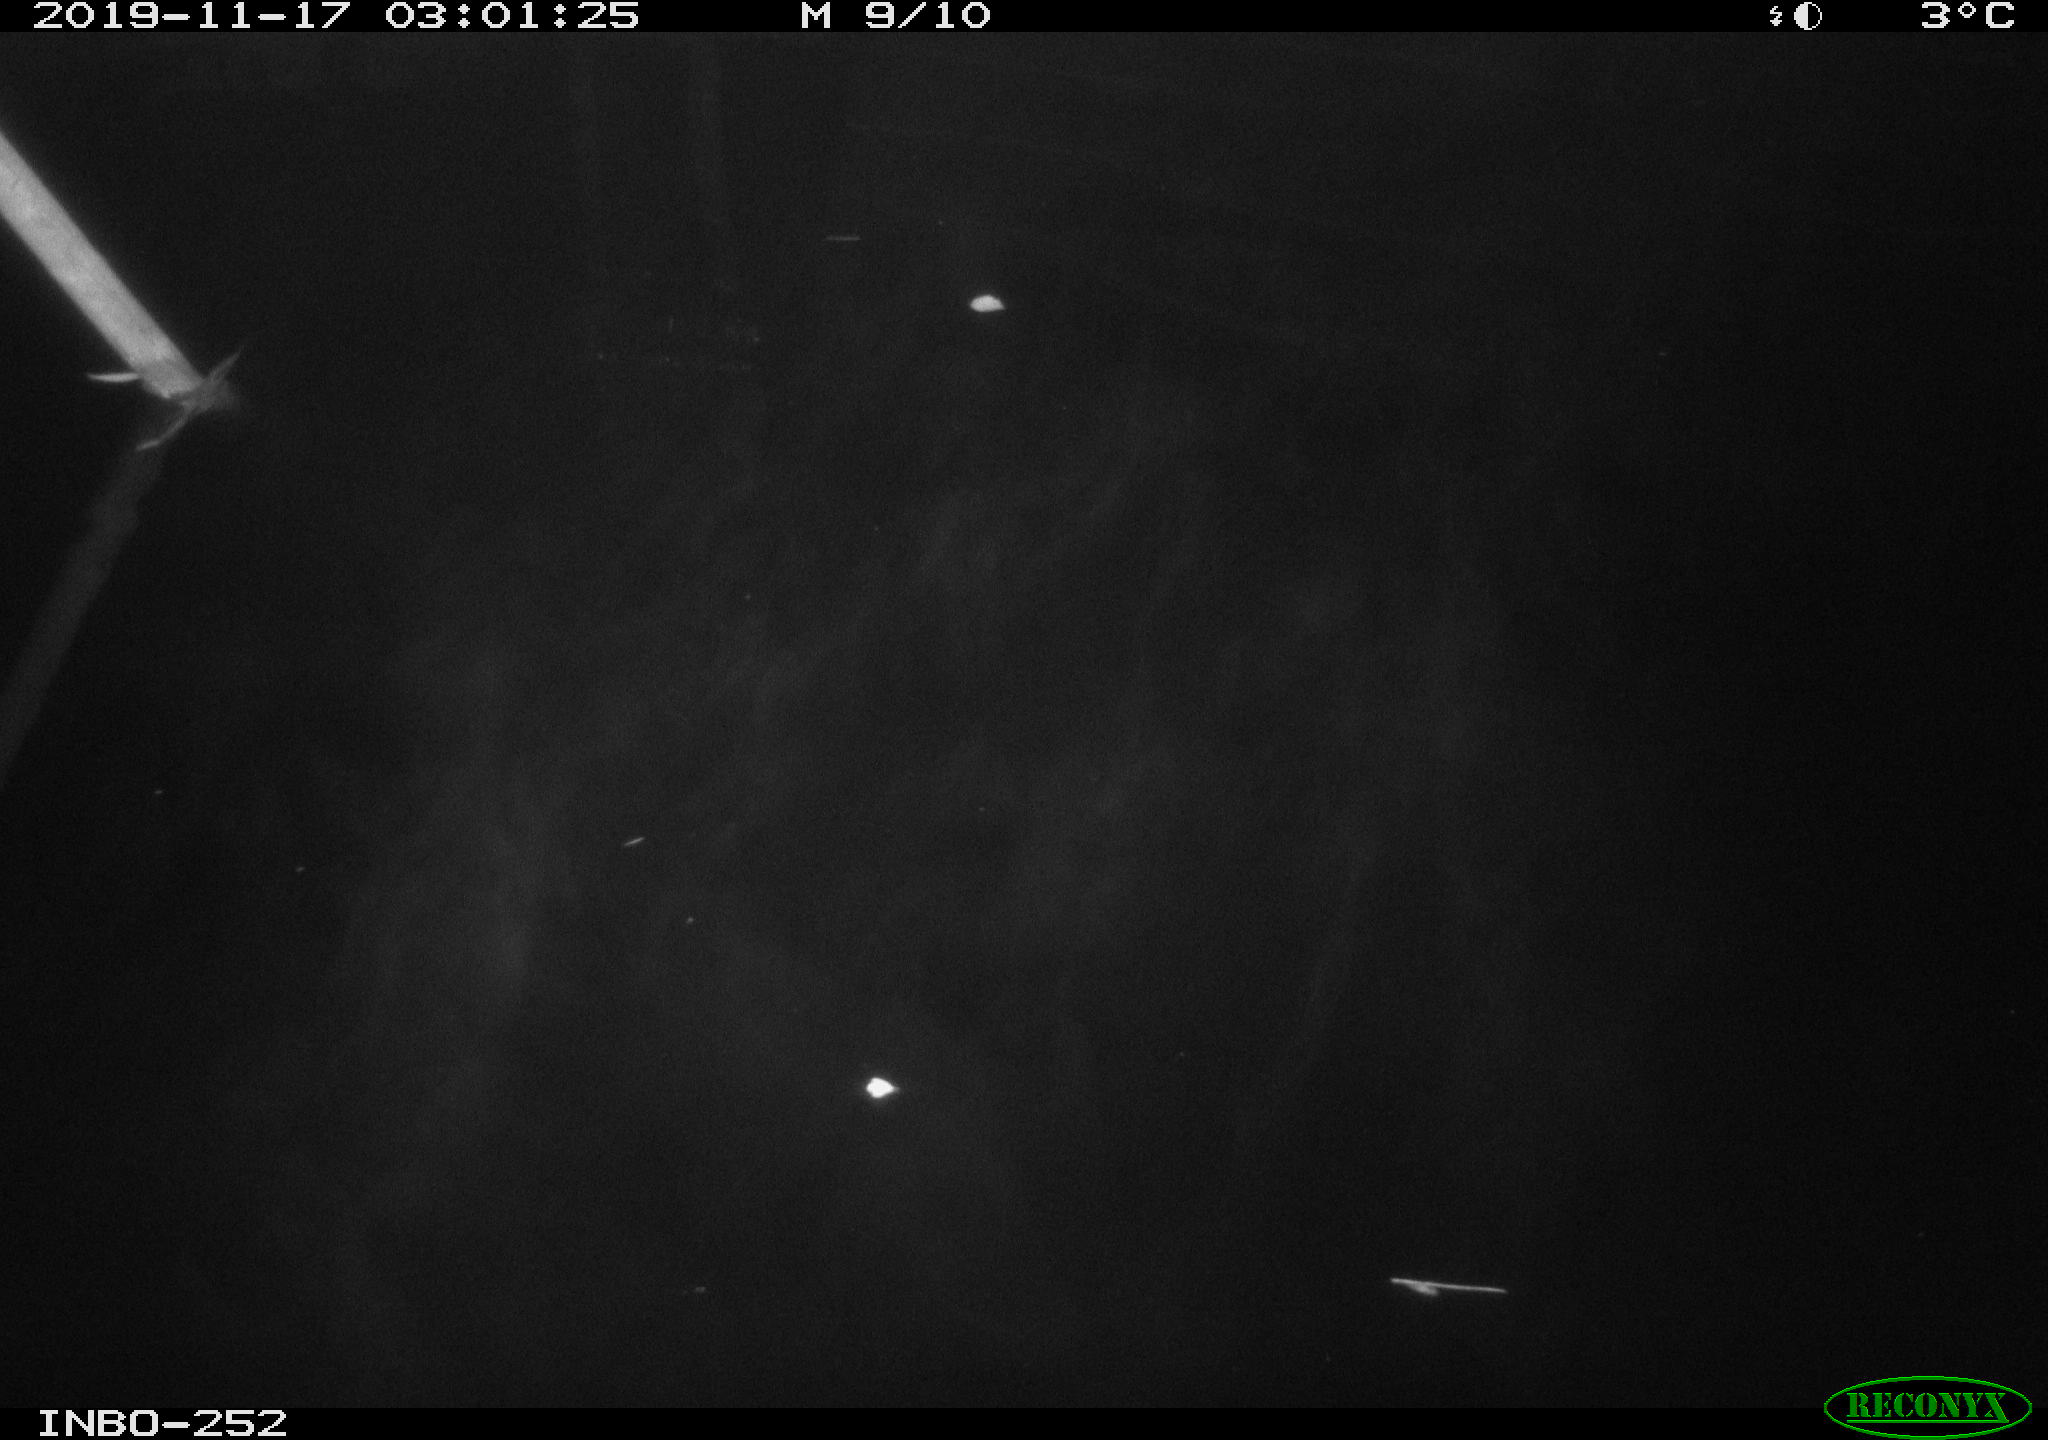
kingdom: Animalia
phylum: Chordata
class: Aves
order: Anseriformes
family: Anatidae
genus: Anas
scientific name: Anas platyrhynchos
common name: Mallard
